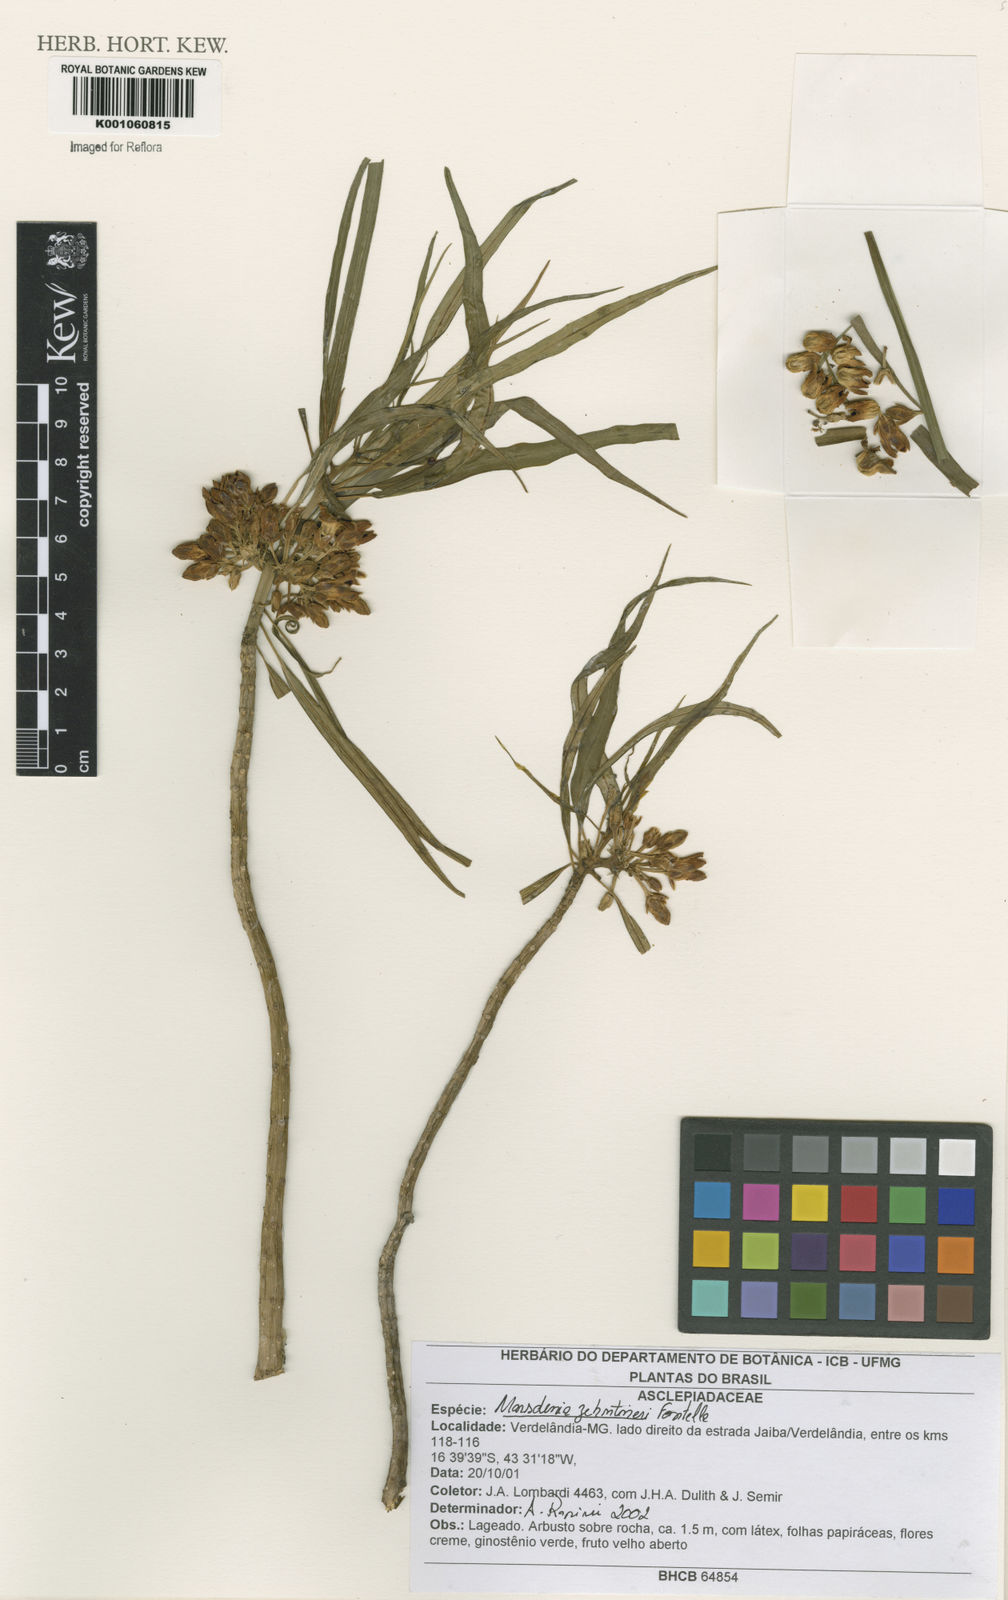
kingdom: Plantae
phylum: Tracheophyta
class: Magnoliopsida
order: Gentianales
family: Apocynaceae
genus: Ruehssia
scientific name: Ruehssia zehntneri
